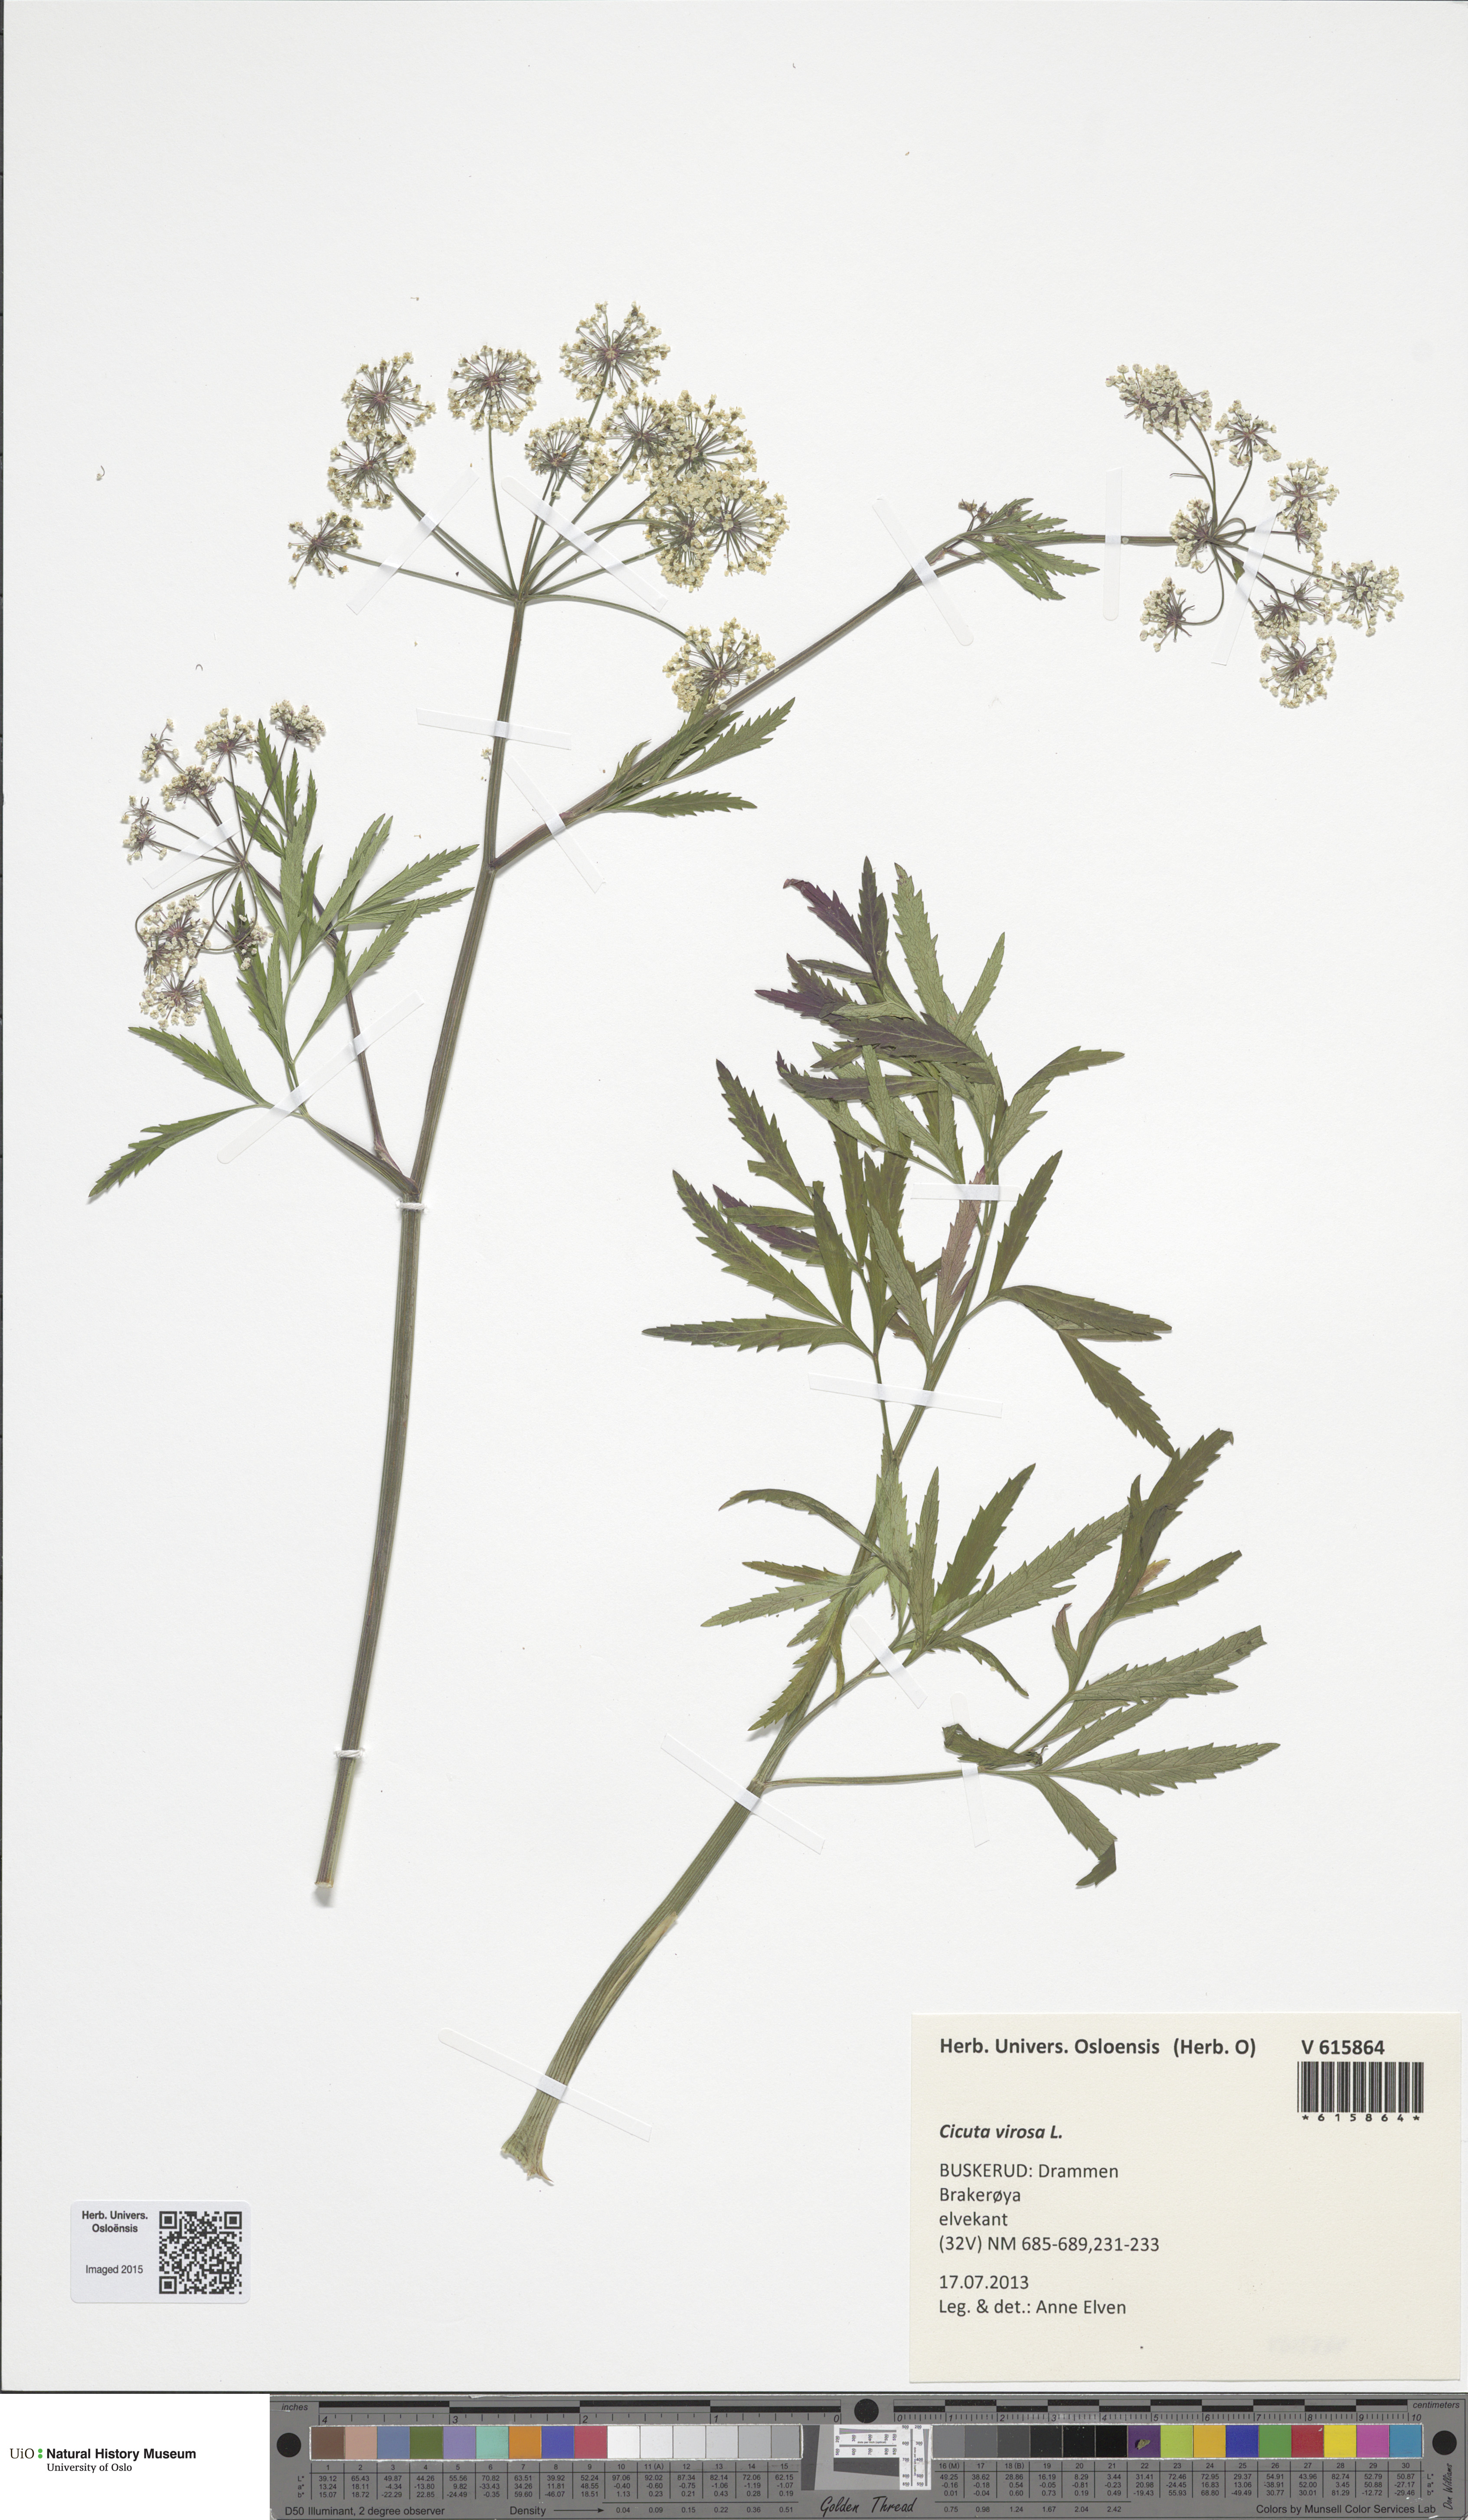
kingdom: Plantae
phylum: Tracheophyta
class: Magnoliopsida
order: Apiales
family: Apiaceae
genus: Cicuta
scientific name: Cicuta virosa
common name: Cowbane
